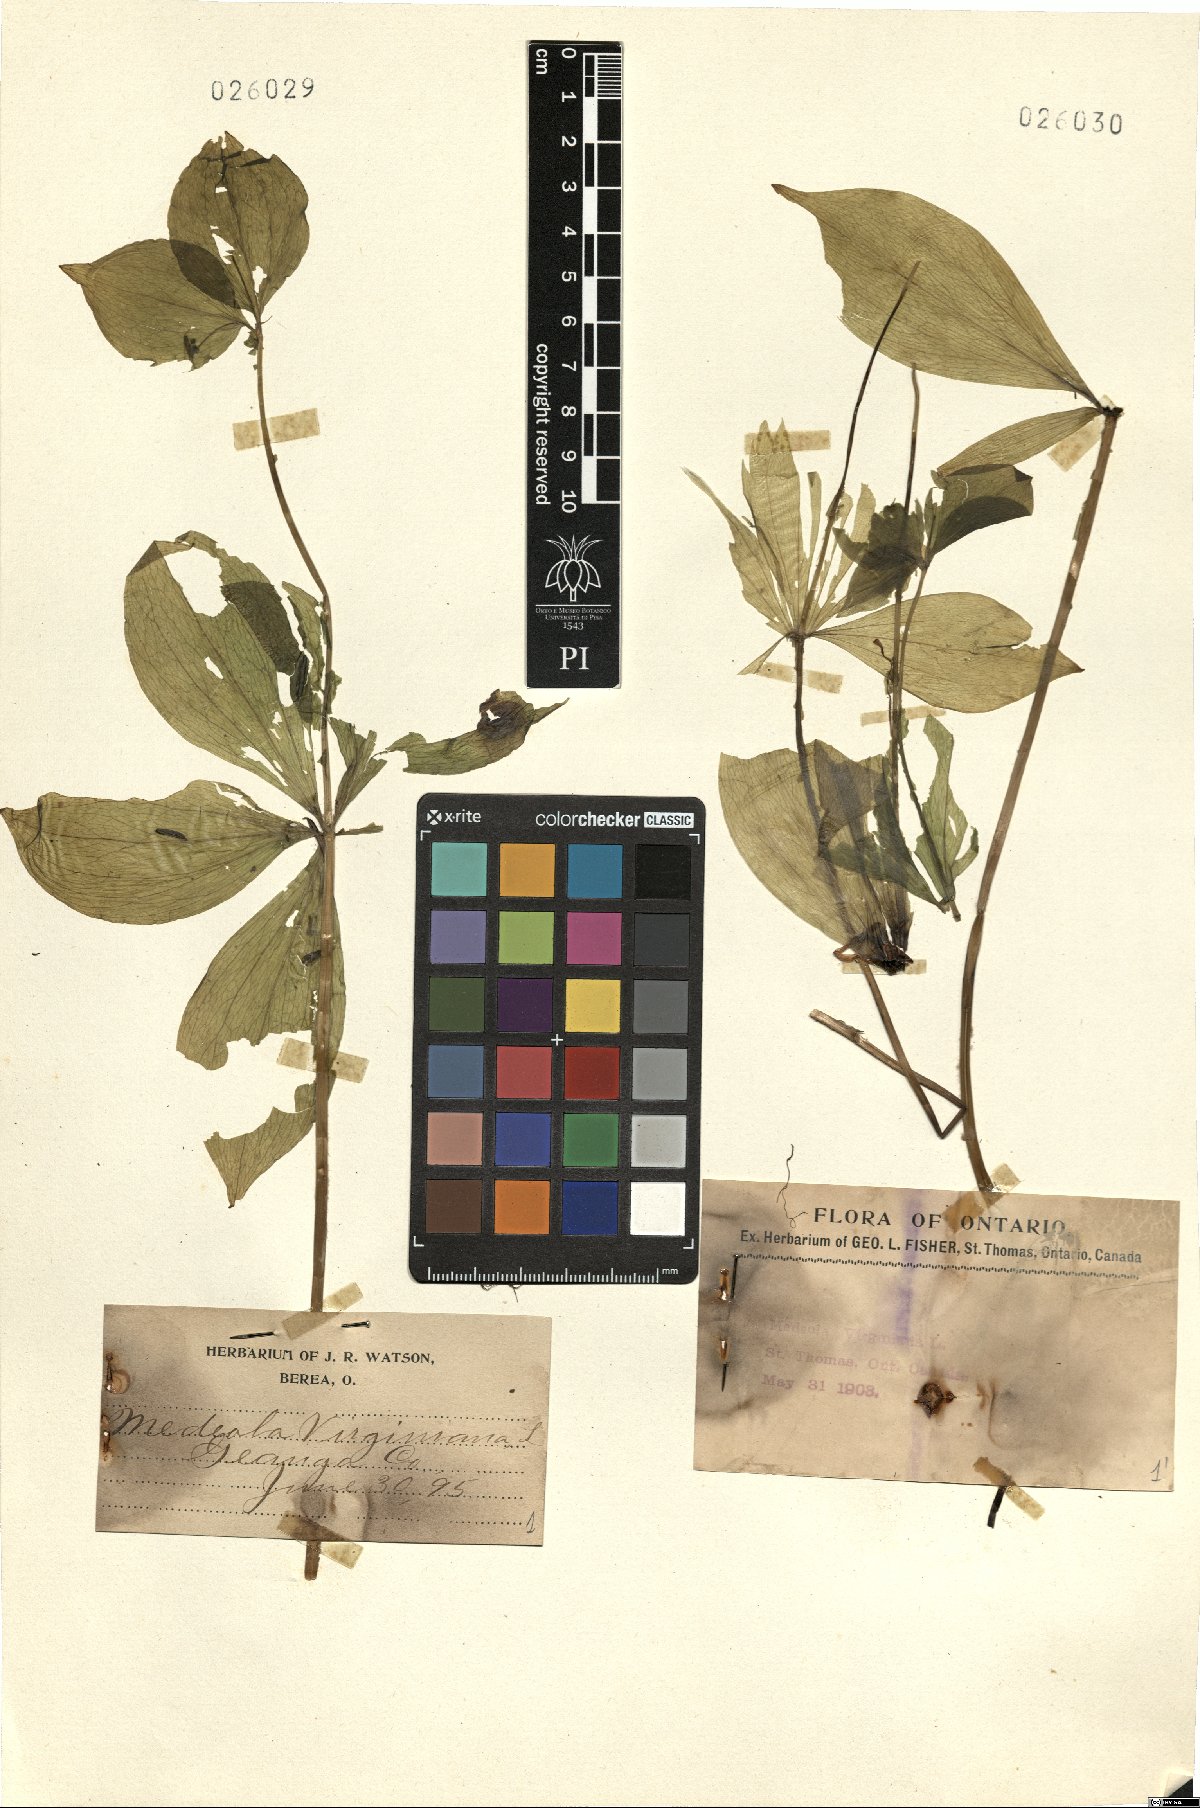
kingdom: Plantae
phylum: Tracheophyta
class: Liliopsida
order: Liliales
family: Liliaceae
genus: Medeola
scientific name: Medeola virginiana
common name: Indian cucumber-root
